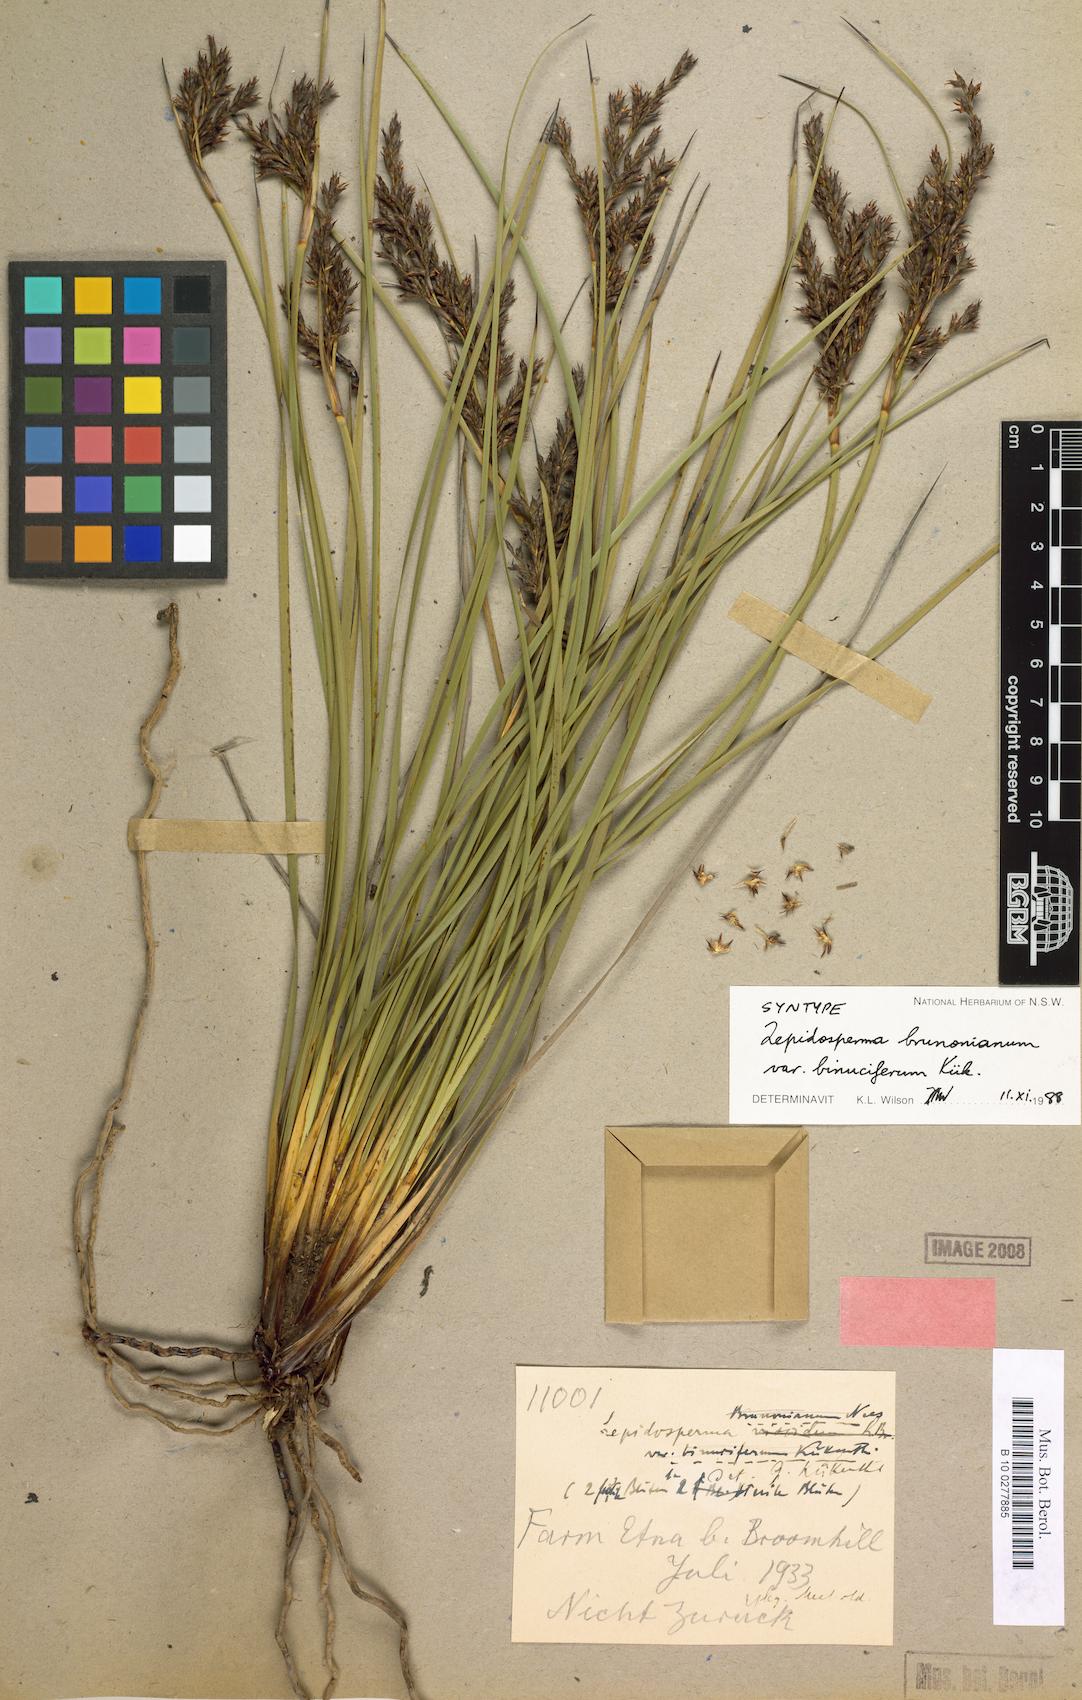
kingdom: Plantae
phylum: Tracheophyta
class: Liliopsida
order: Poales
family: Cyperaceae
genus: Lepidosperma
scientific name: Lepidosperma sieberi
